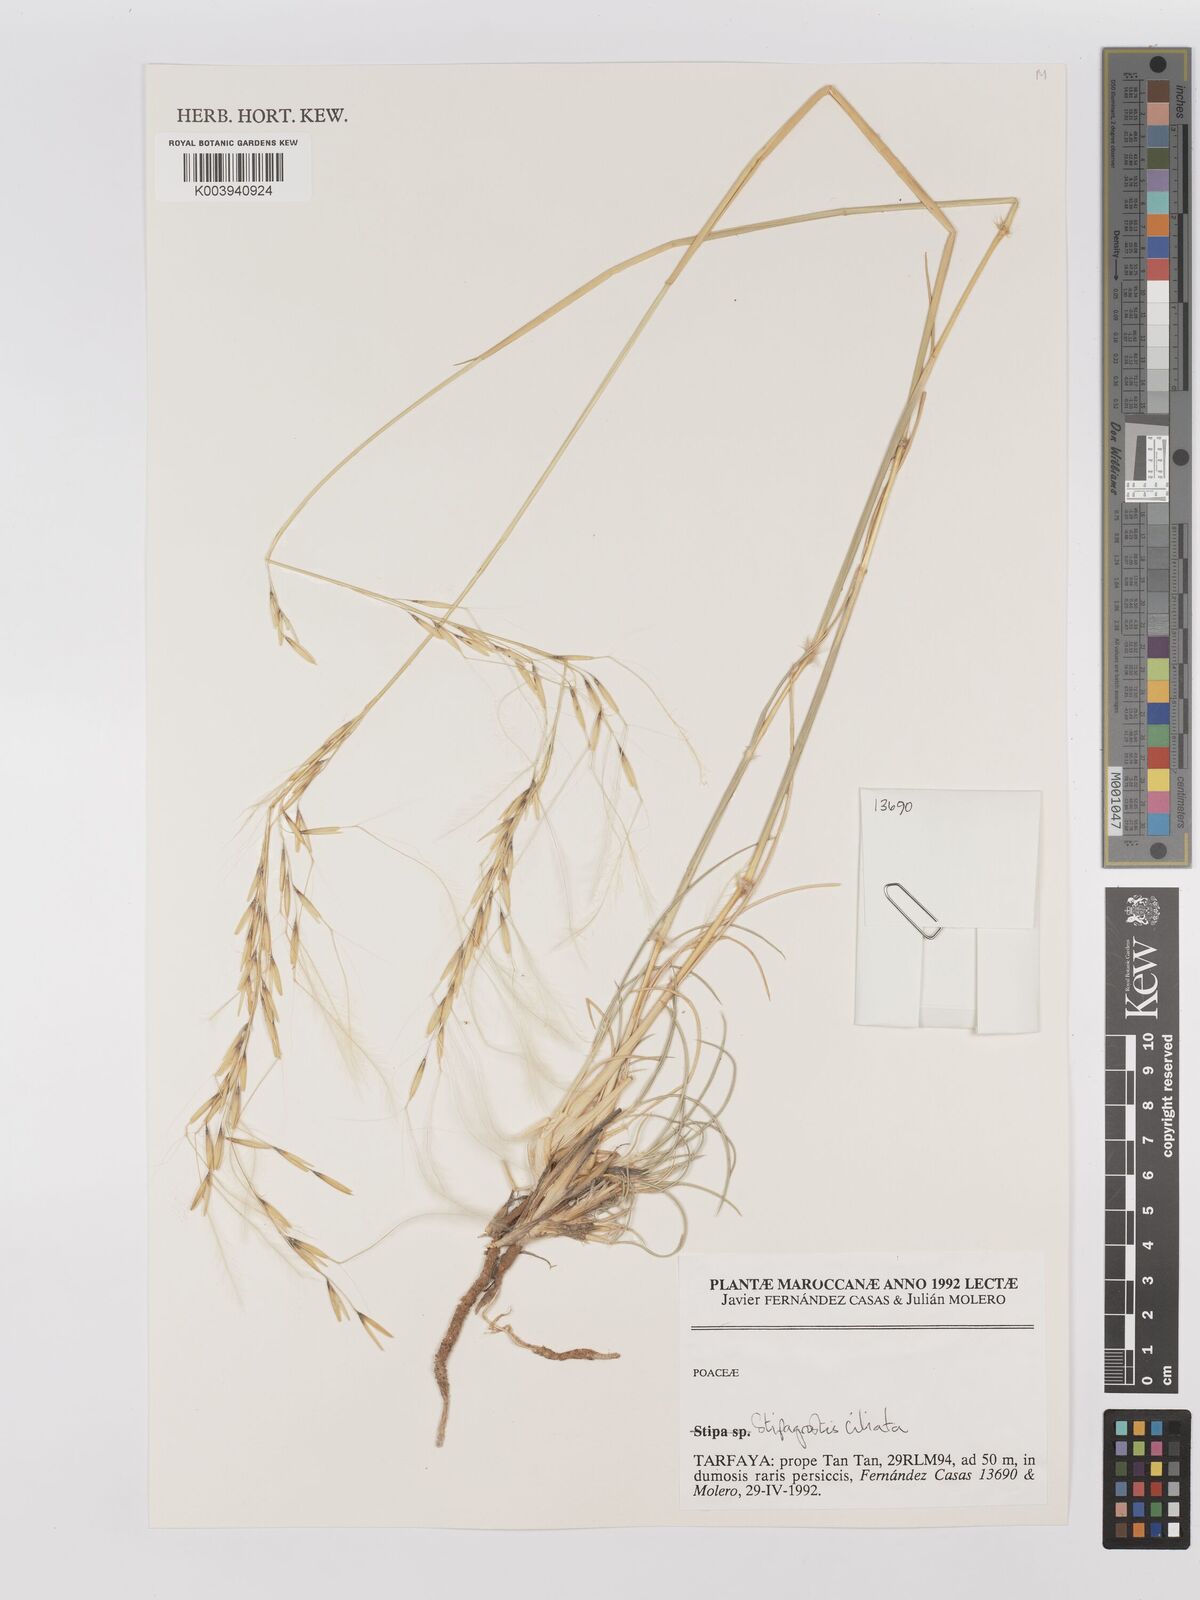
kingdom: Plantae
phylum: Tracheophyta
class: Liliopsida
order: Poales
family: Poaceae
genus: Stipagrostis
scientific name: Stipagrostis ciliata
